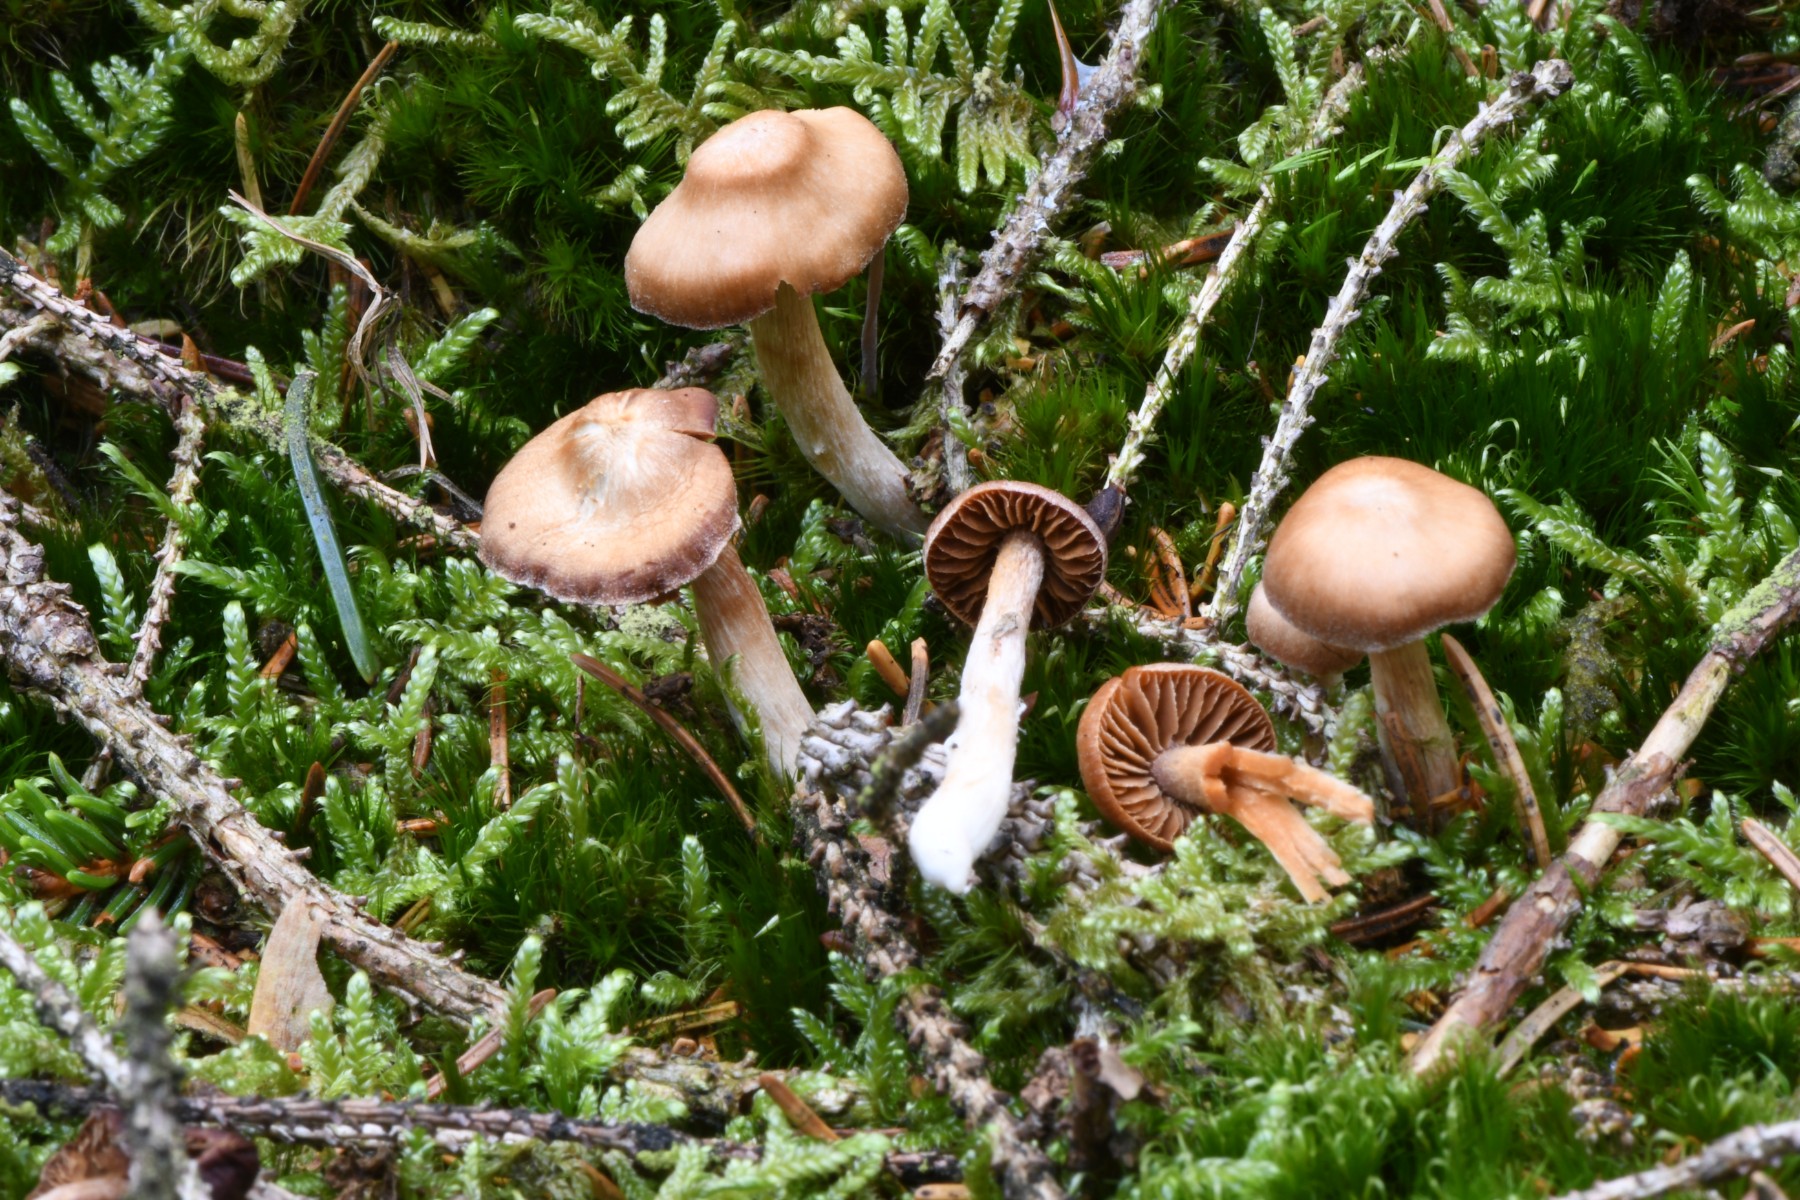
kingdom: Fungi
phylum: Basidiomycota
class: Agaricomycetes
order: Agaricales
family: Cortinariaceae
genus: Cortinarius
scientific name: Cortinarius
